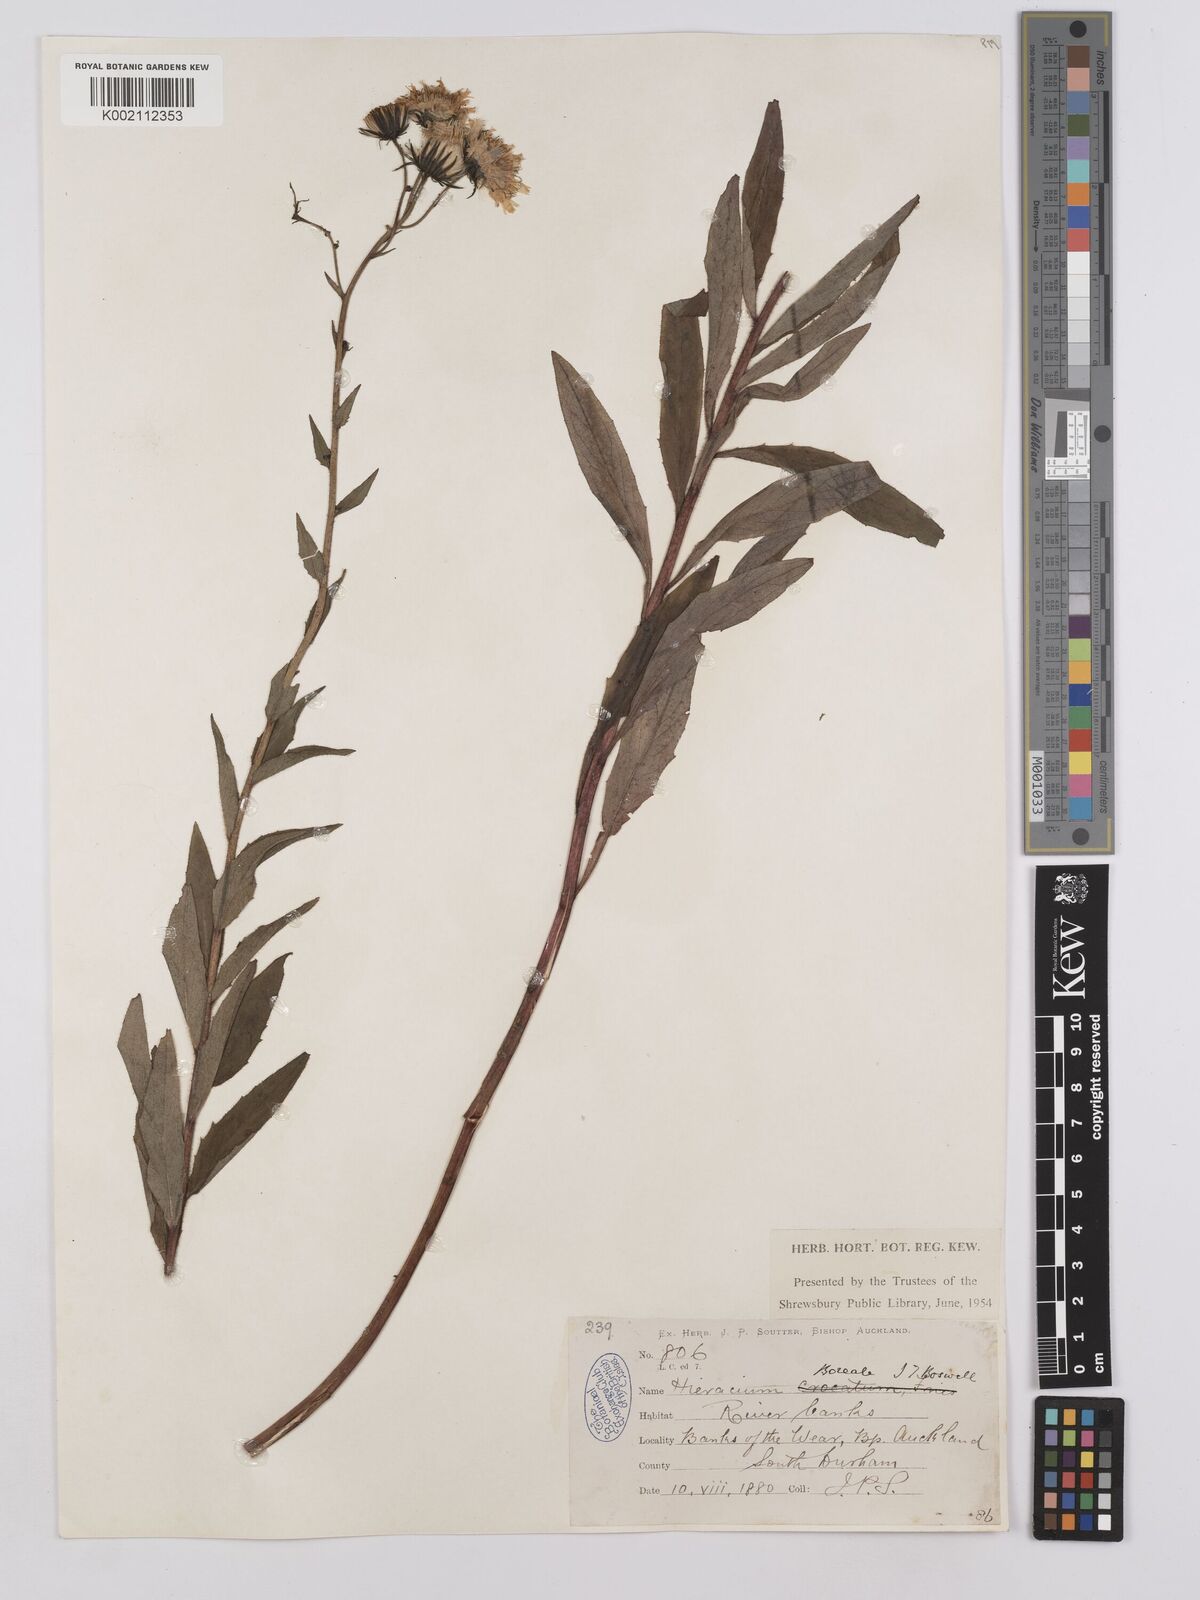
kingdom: Plantae
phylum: Tracheophyta
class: Magnoliopsida
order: Asterales
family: Asteraceae
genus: Hieracium
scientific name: Hieracium sabaudum
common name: New england hawkweed
